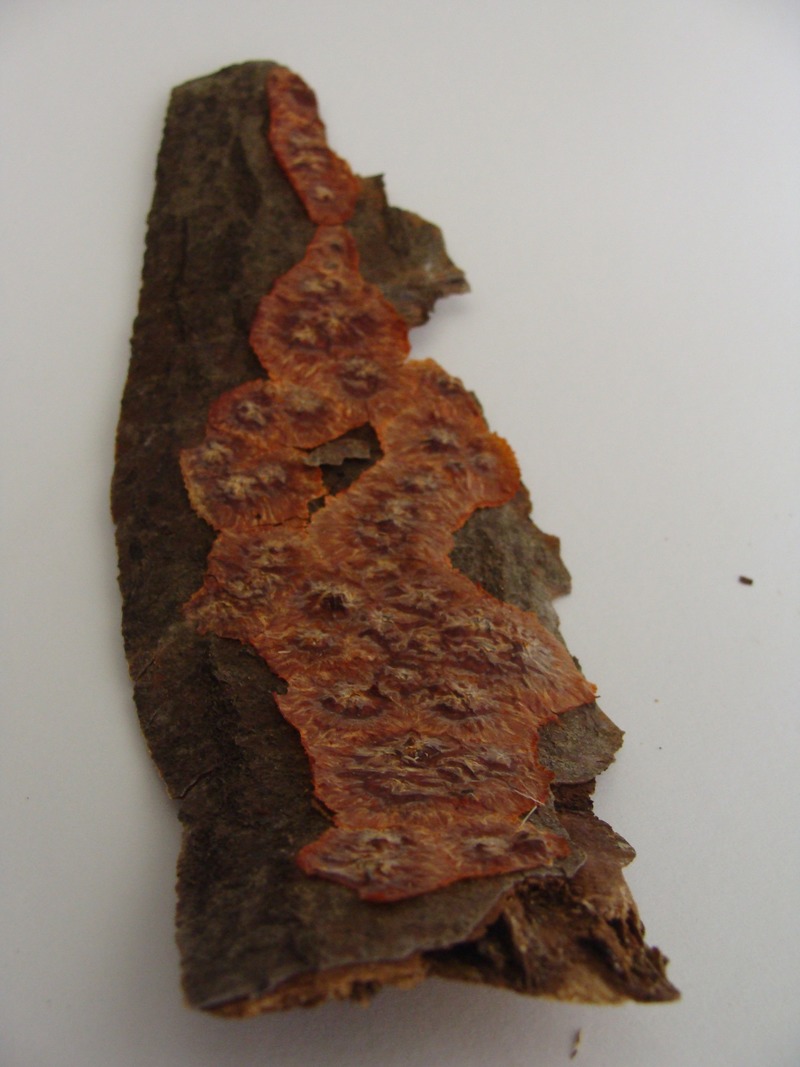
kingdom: Plantae
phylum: Tracheophyta
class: Magnoliopsida
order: Fagales
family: Betulaceae
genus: Alnus
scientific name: Alnus
